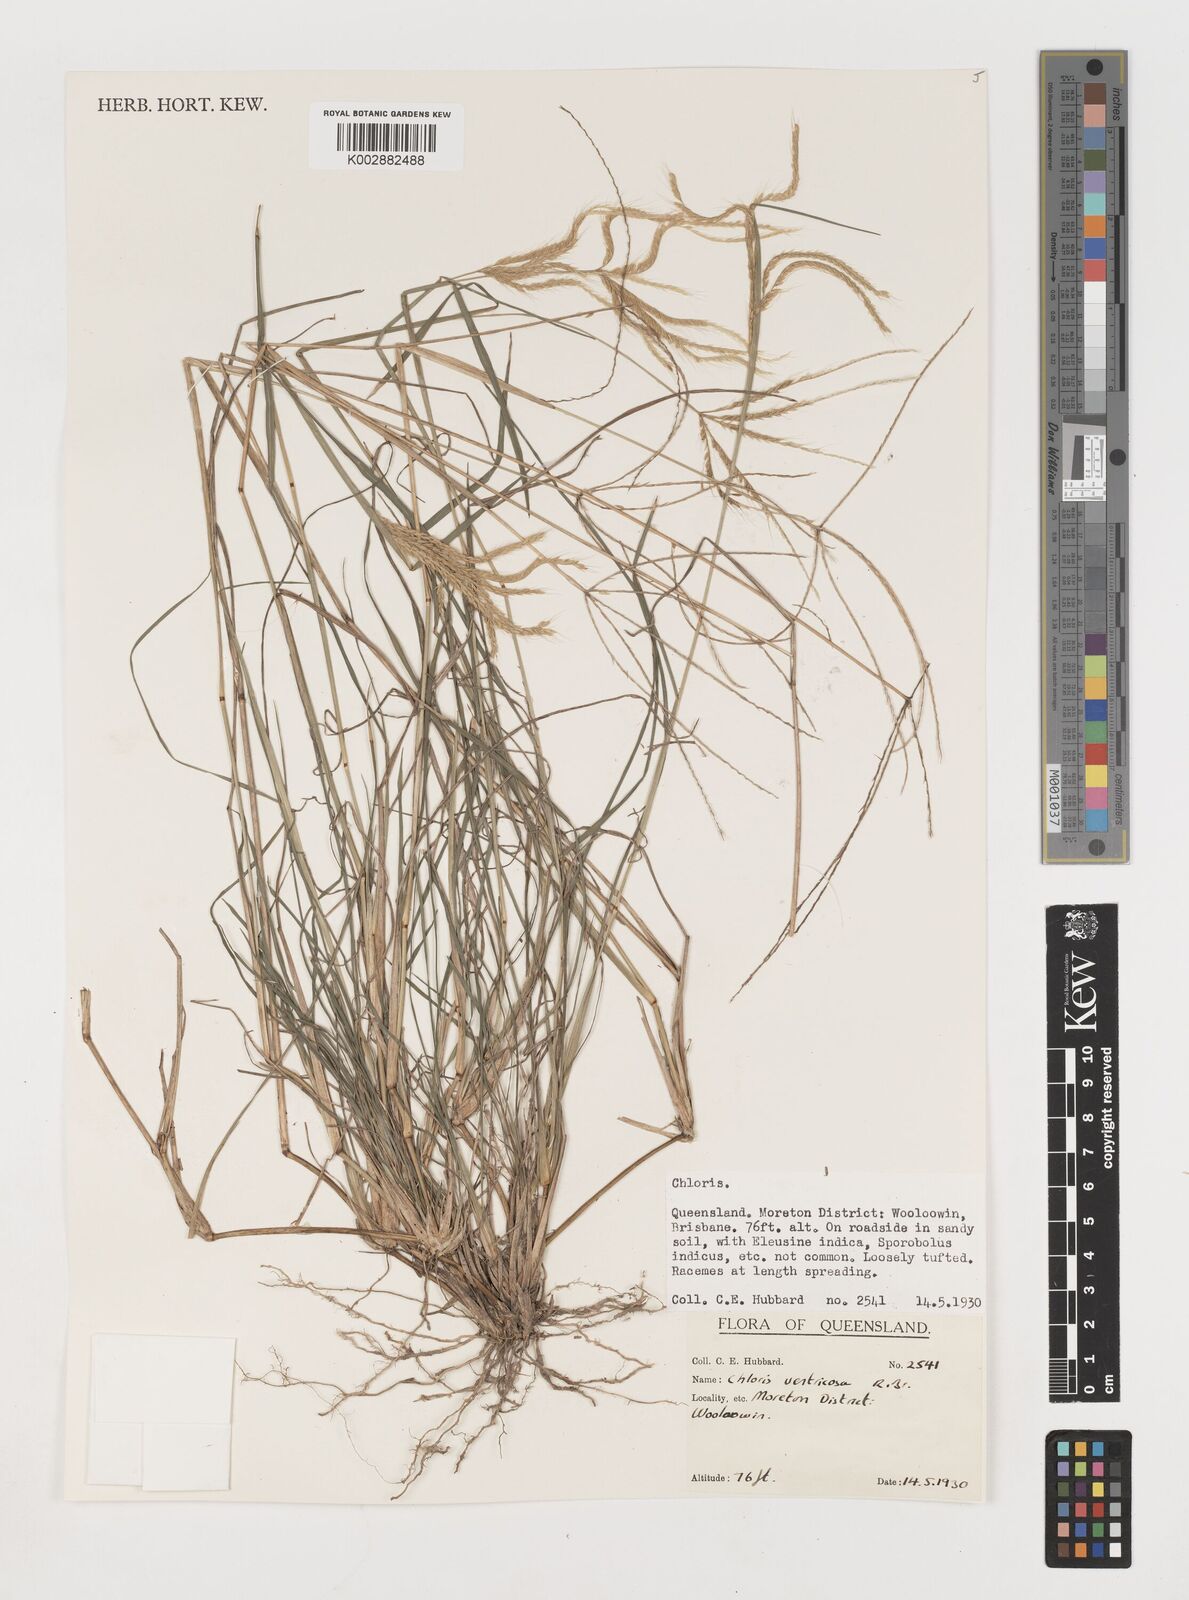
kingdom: Plantae
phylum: Tracheophyta
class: Liliopsida
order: Poales
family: Poaceae
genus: Chloris
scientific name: Chloris ventricosa
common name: Australian windmill grass
